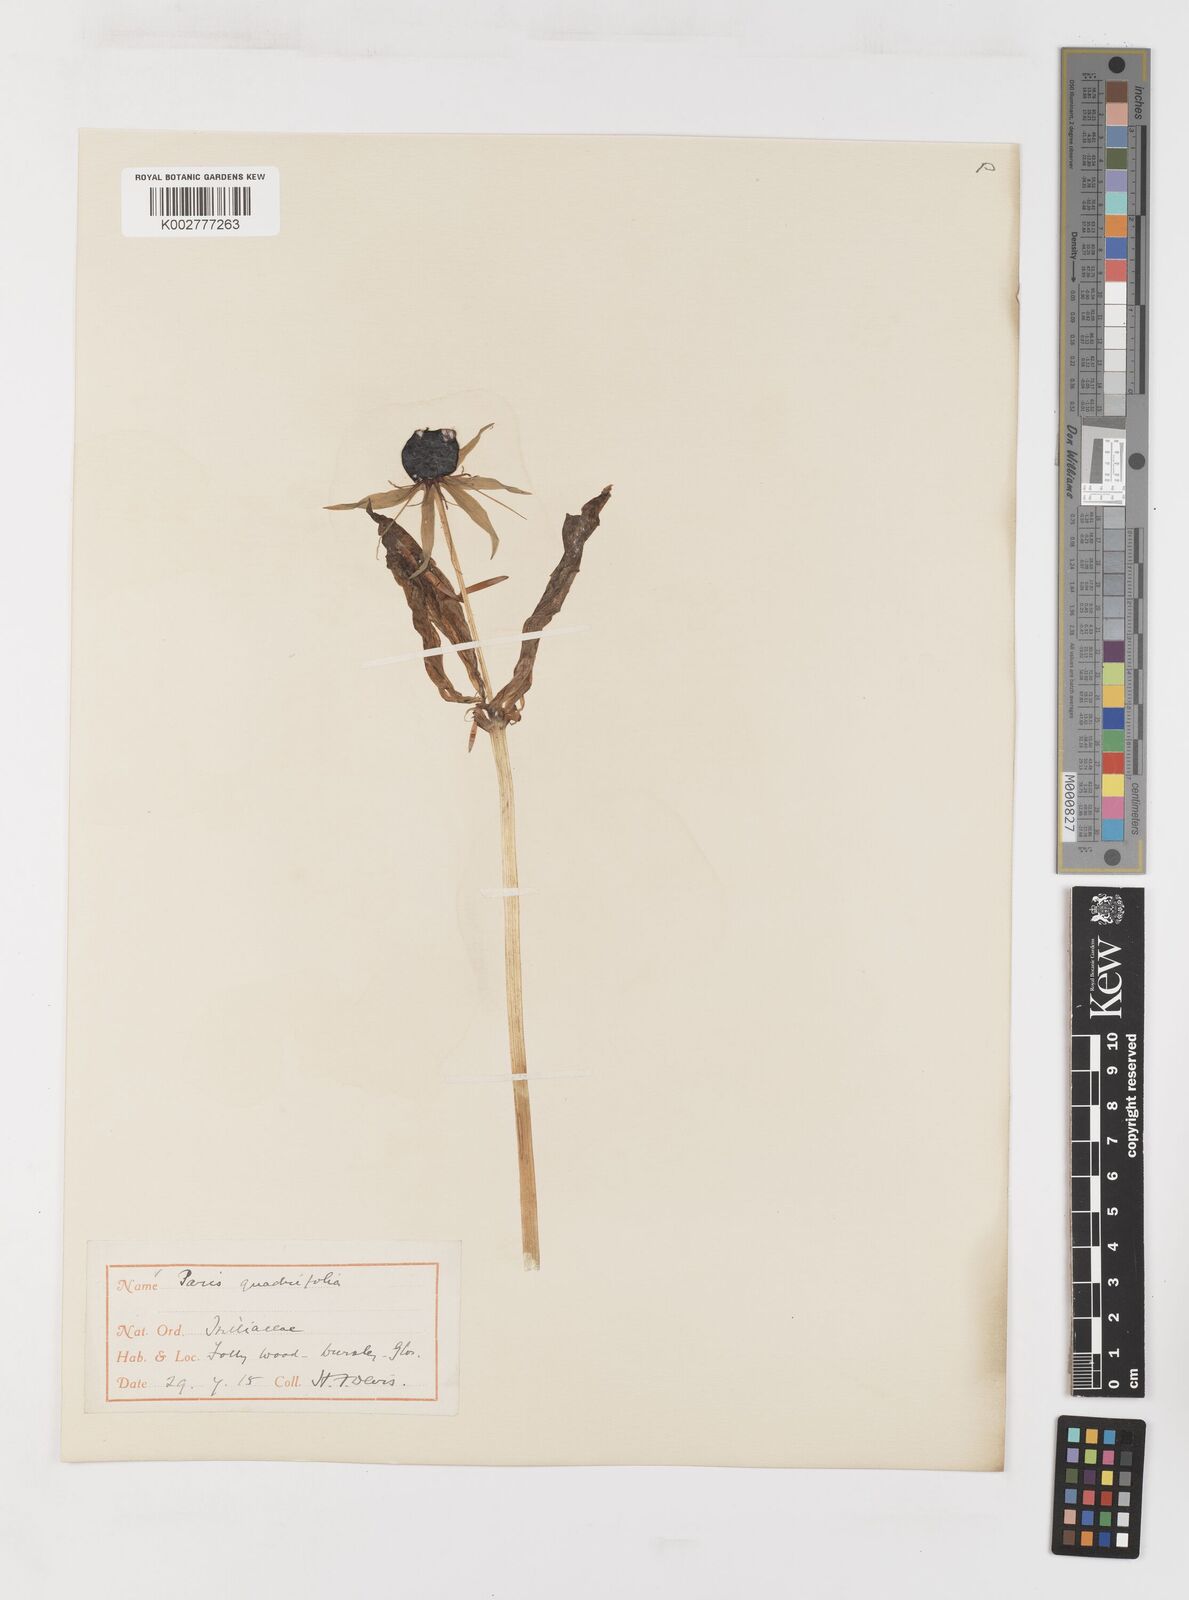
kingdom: Plantae
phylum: Tracheophyta
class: Liliopsida
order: Liliales
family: Melanthiaceae
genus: Paris
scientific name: Paris quadrifolia
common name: Herb-paris
